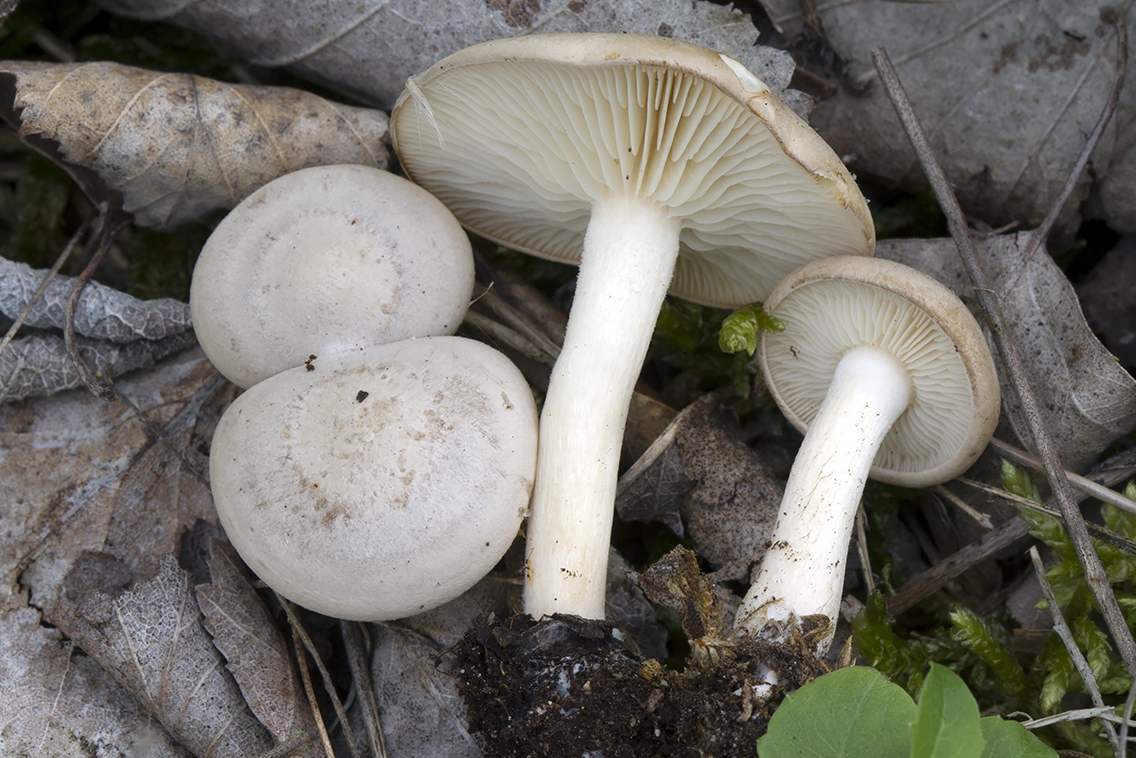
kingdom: Fungi
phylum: Basidiomycota
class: Agaricomycetes
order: Agaricales
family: Tricholomataceae
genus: Clitocybe
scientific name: Clitocybe albofragrans
